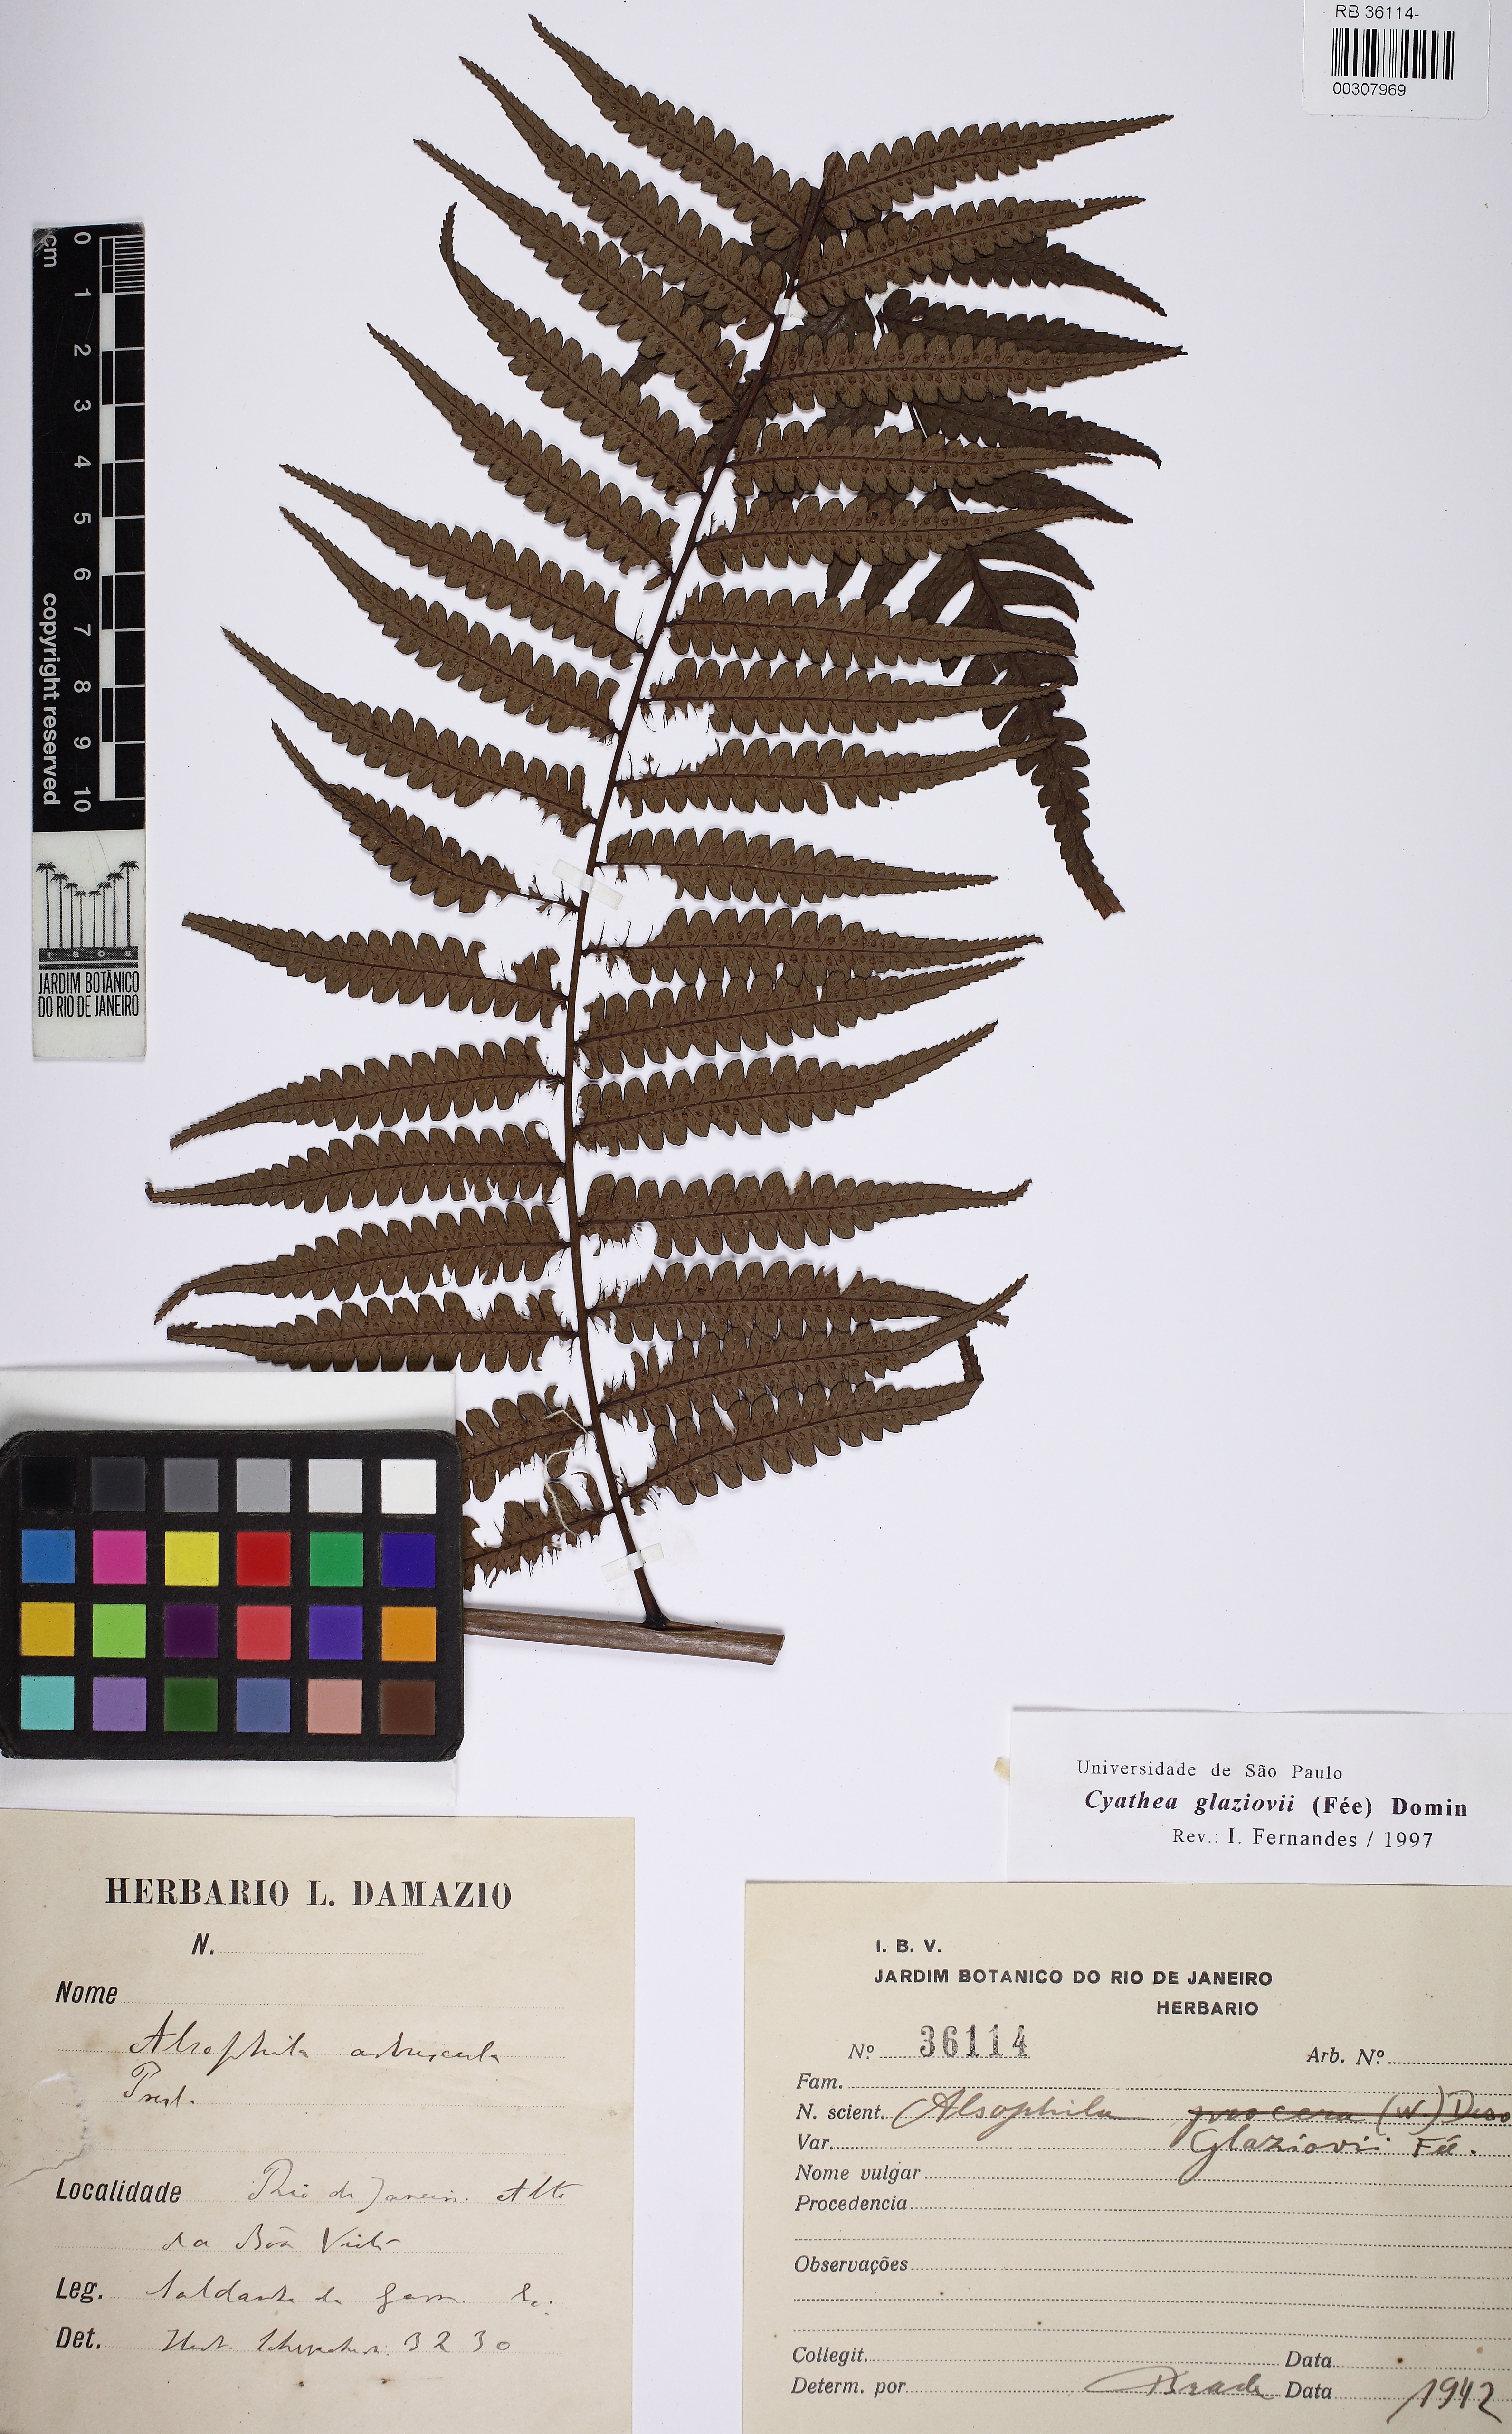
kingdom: Plantae
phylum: Tracheophyta
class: Polypodiopsida
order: Cyatheales
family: Cyatheaceae
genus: Cyathea
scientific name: Cyathea glaziovii
